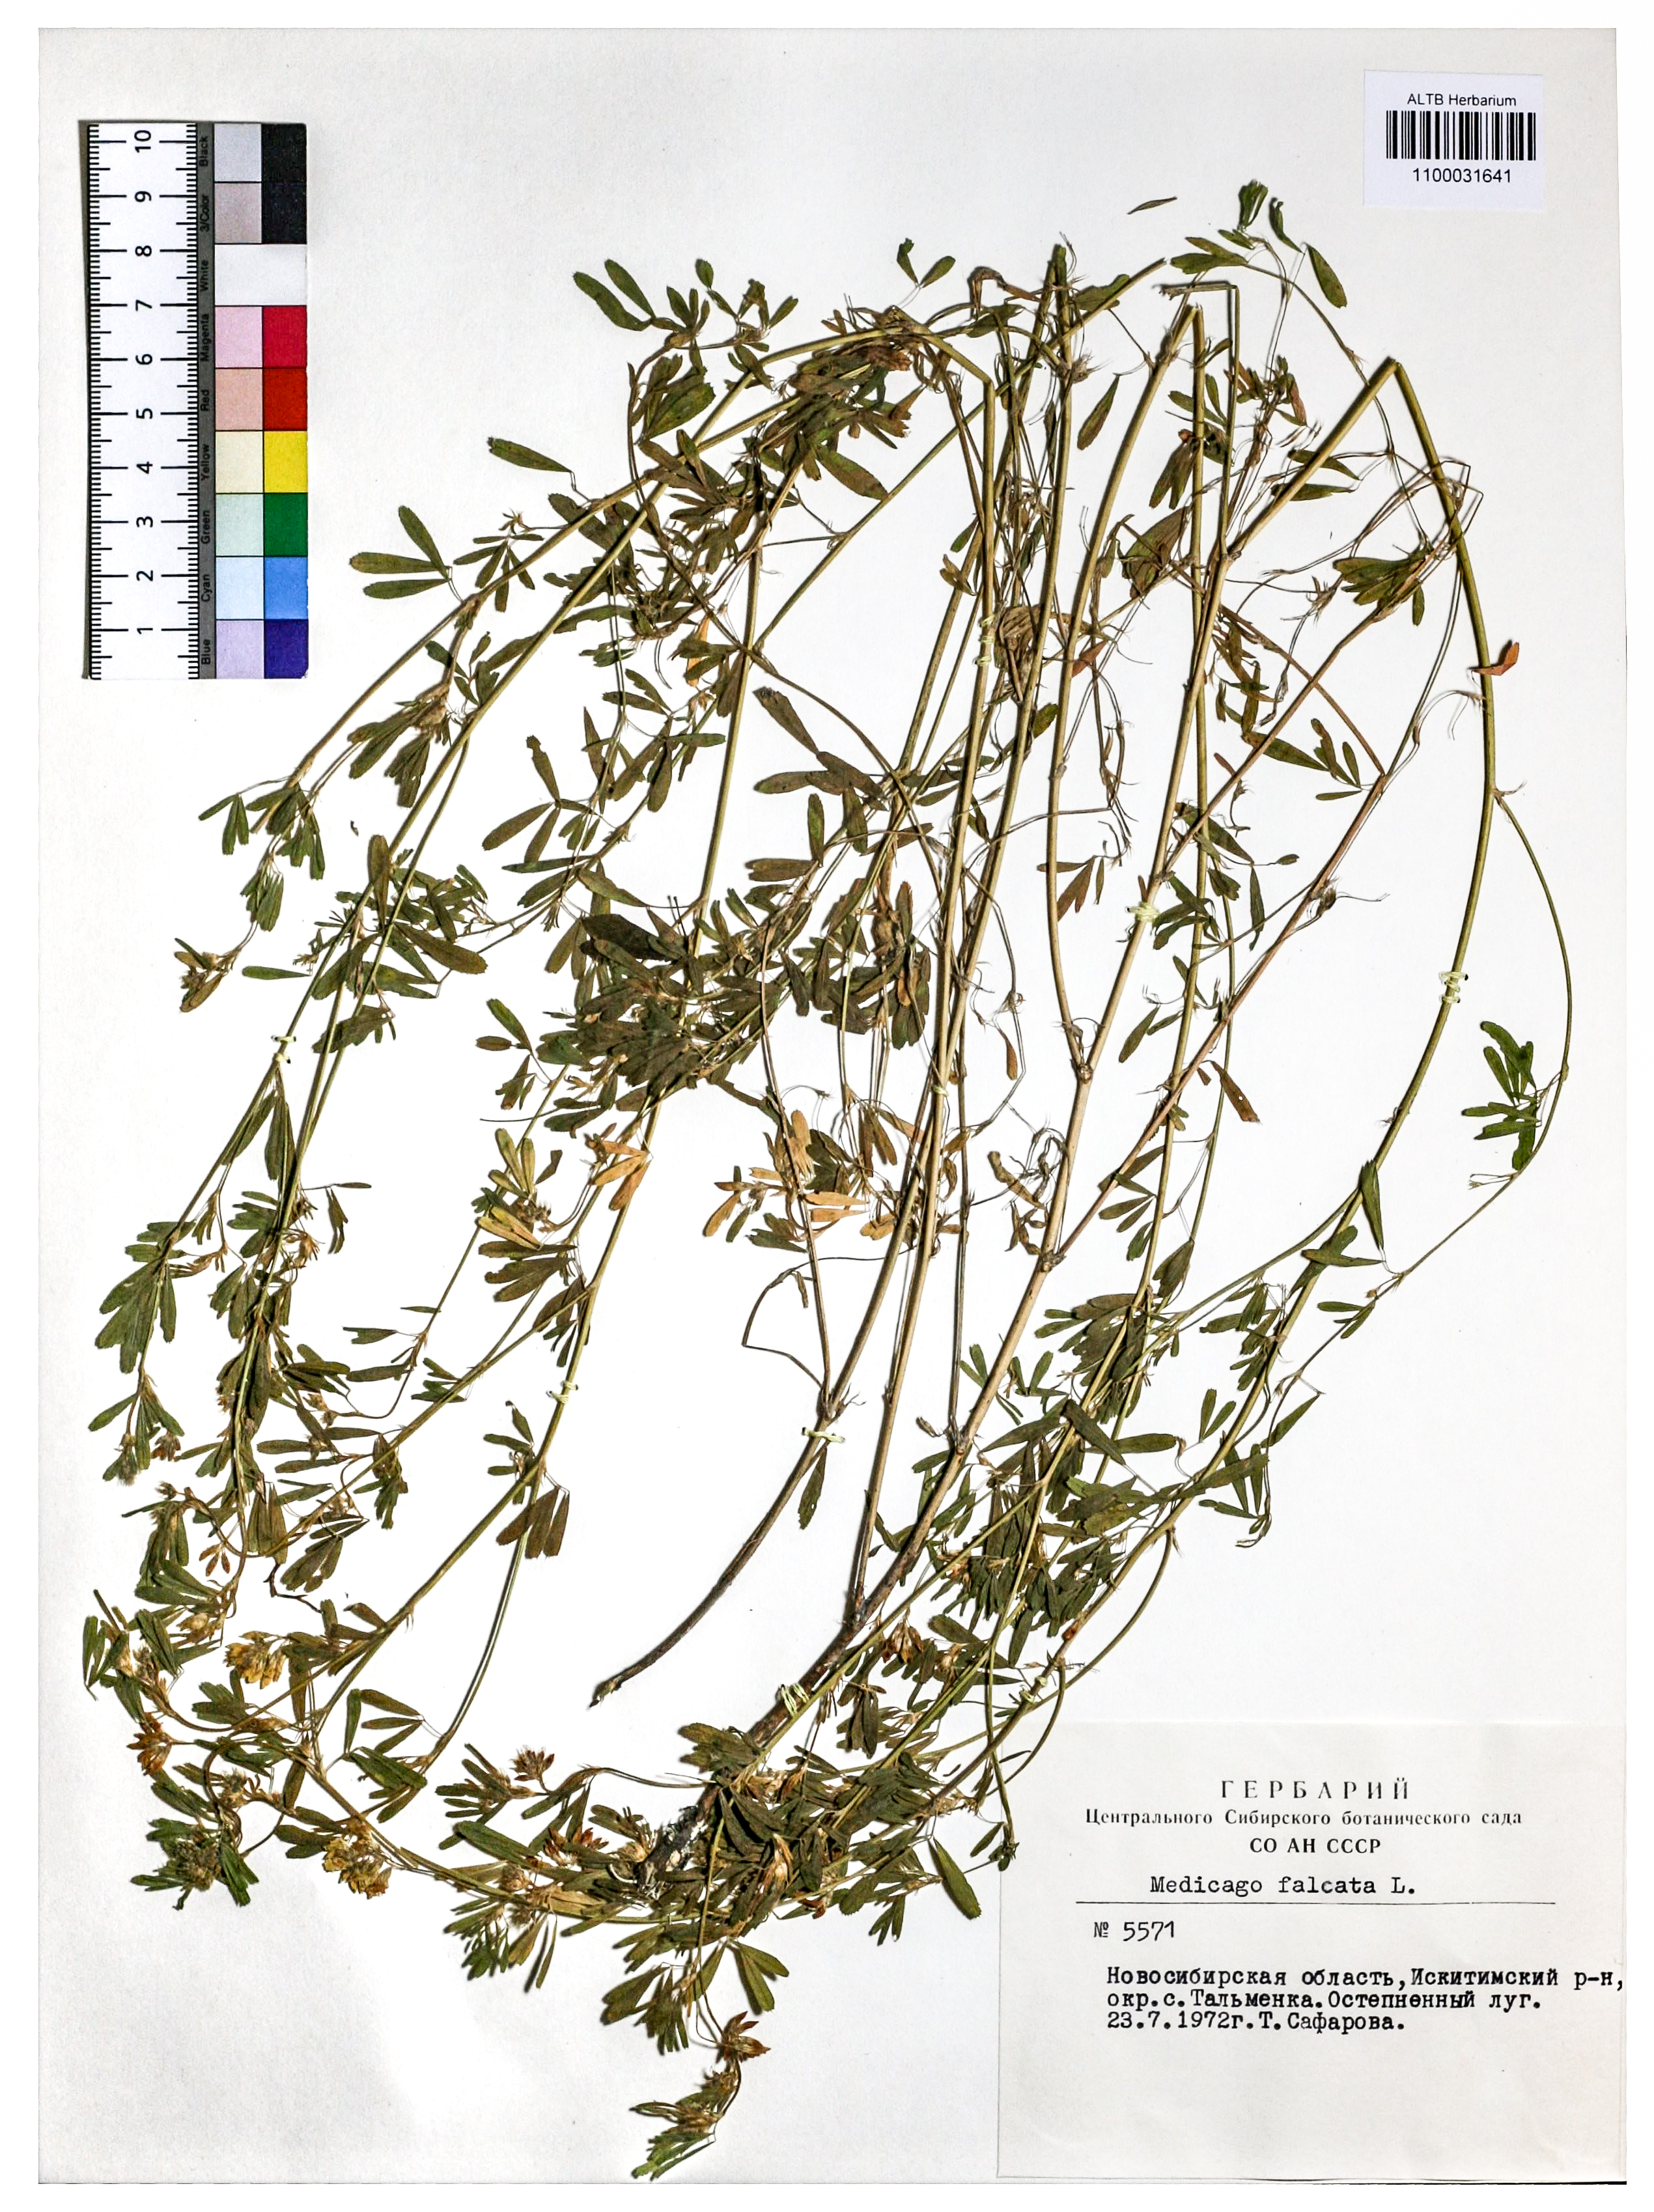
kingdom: Plantae
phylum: Tracheophyta
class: Magnoliopsida
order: Fabales
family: Fabaceae
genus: Medicago
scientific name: Medicago falcata
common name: Sickle medick
